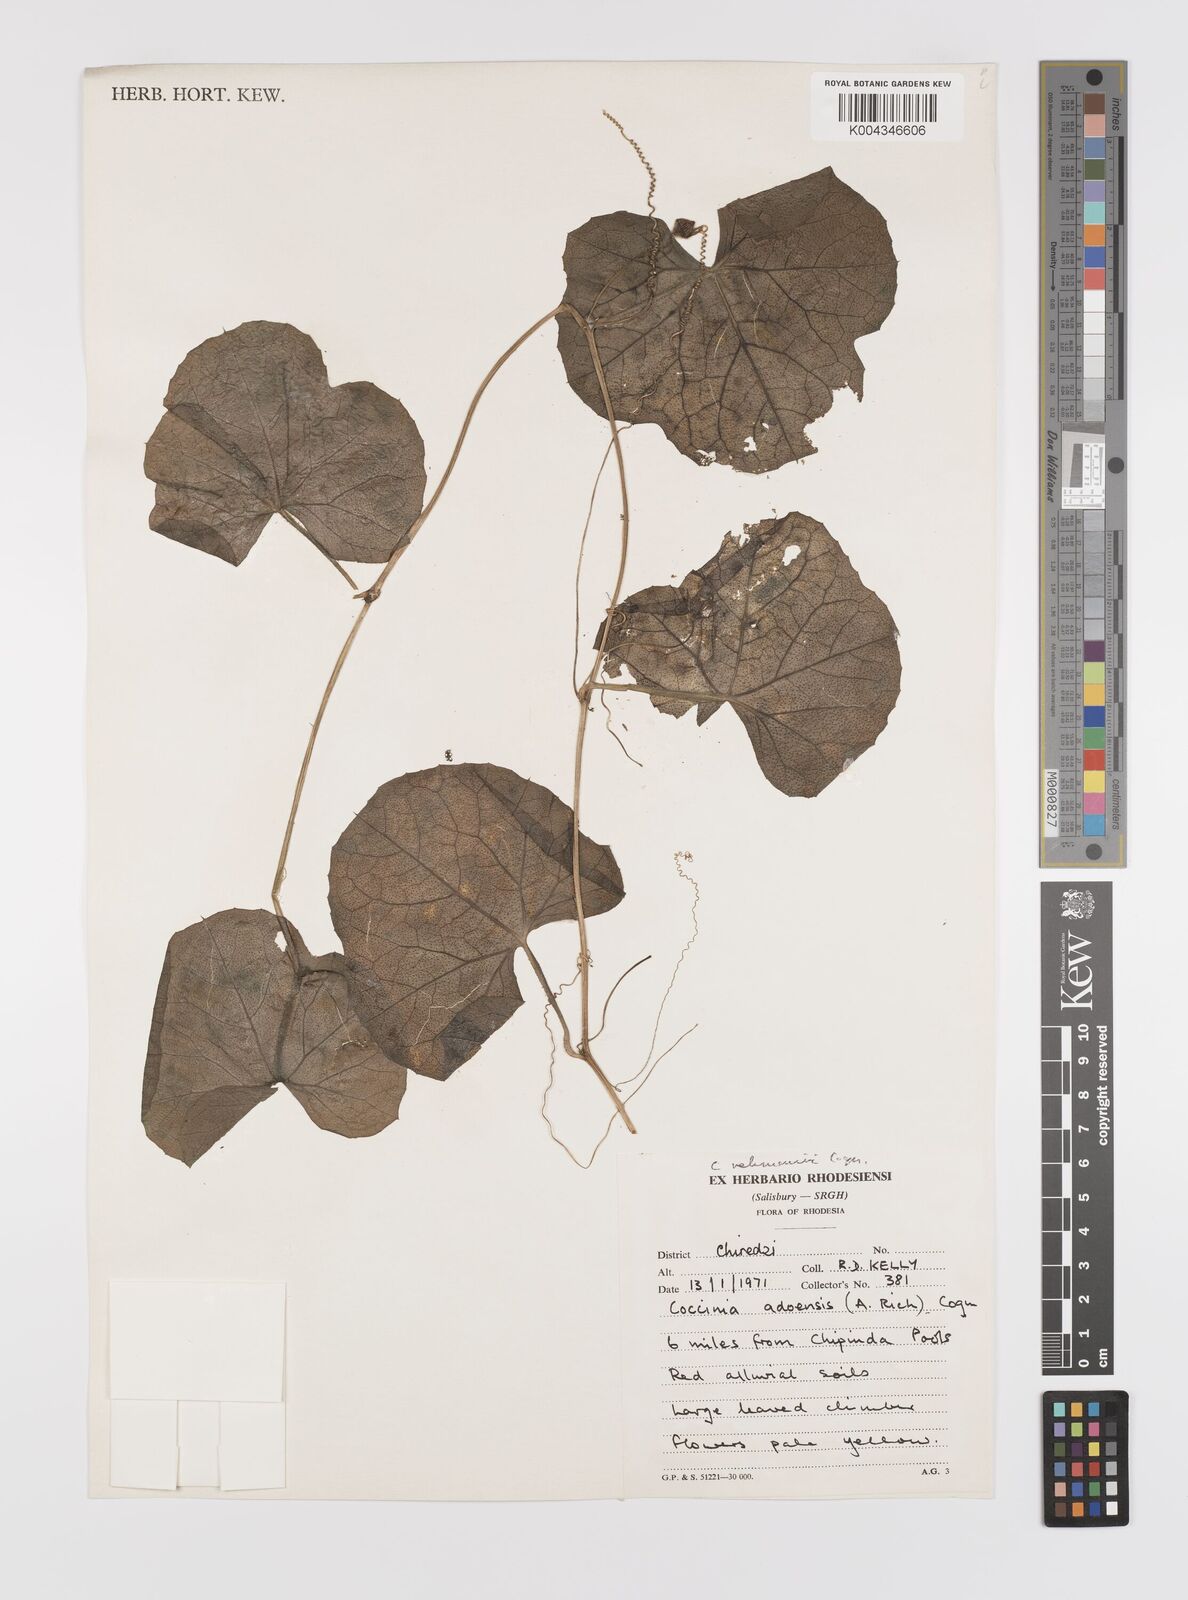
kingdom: Plantae
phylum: Tracheophyta
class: Magnoliopsida
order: Cucurbitales
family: Cucurbitaceae
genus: Coccinia
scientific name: Coccinia rehmannii
